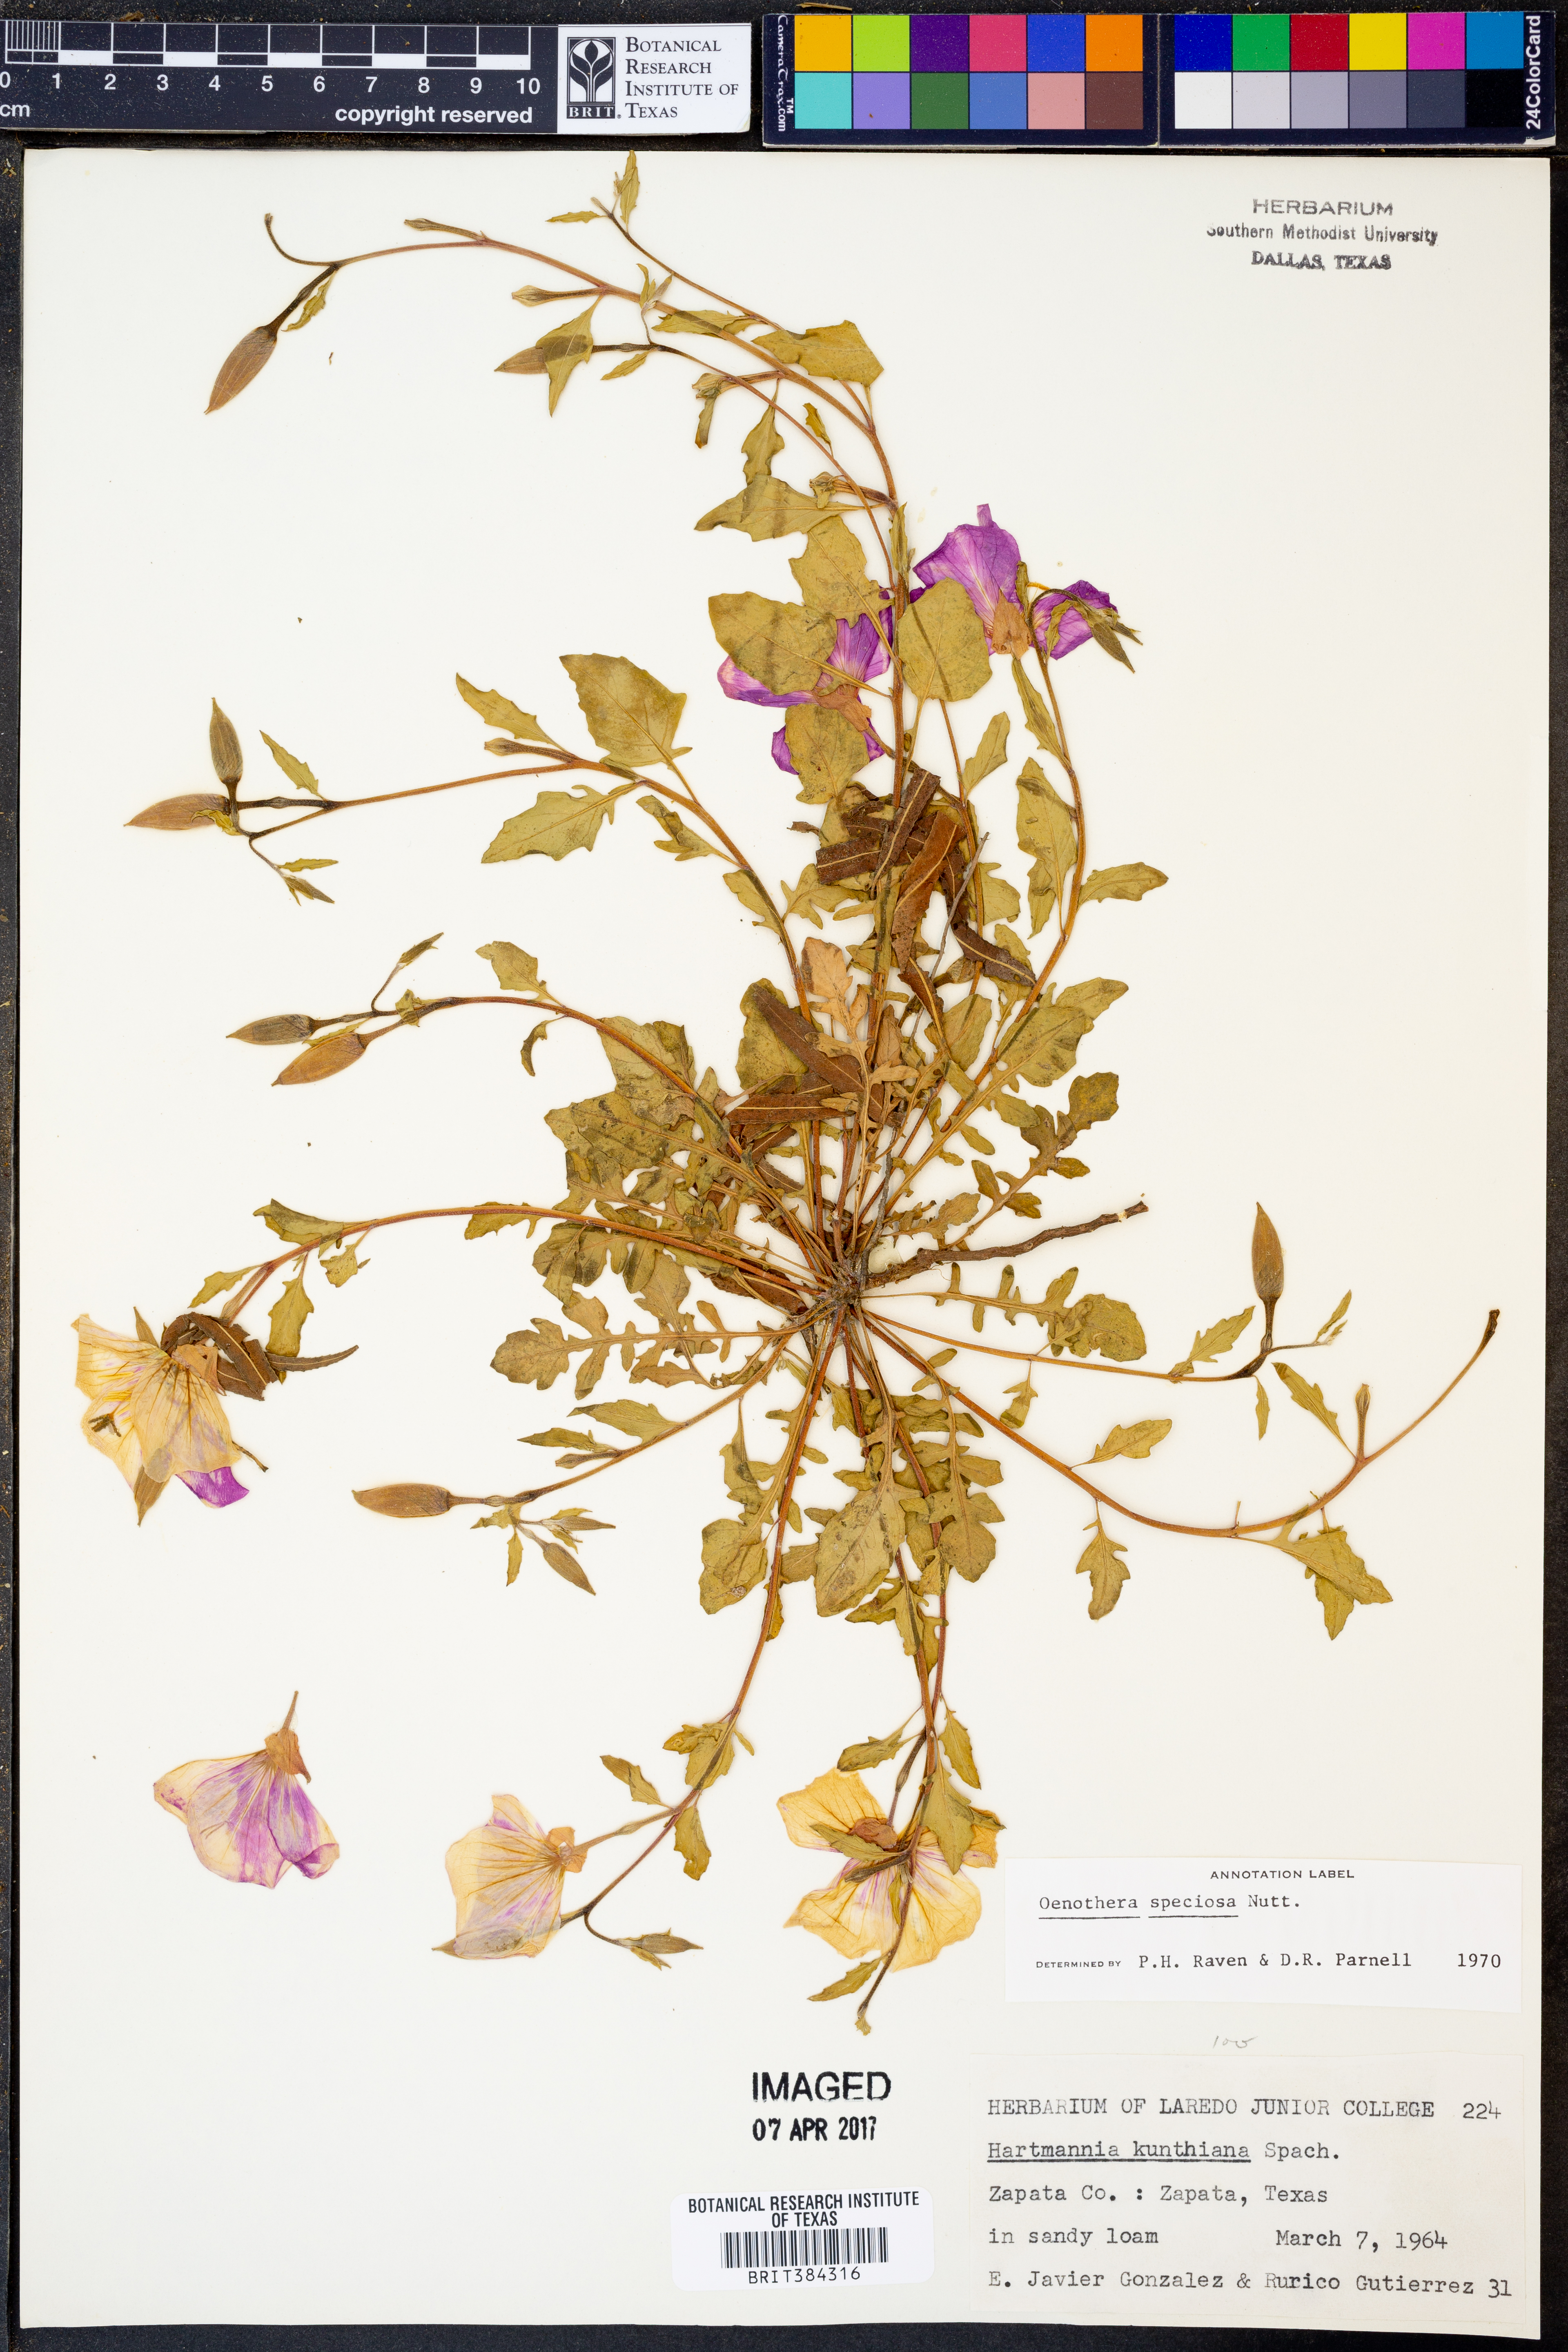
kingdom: Plantae
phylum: Tracheophyta
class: Magnoliopsida
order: Myrtales
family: Onagraceae
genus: Oenothera
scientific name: Oenothera speciosa
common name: White evening-primrose
